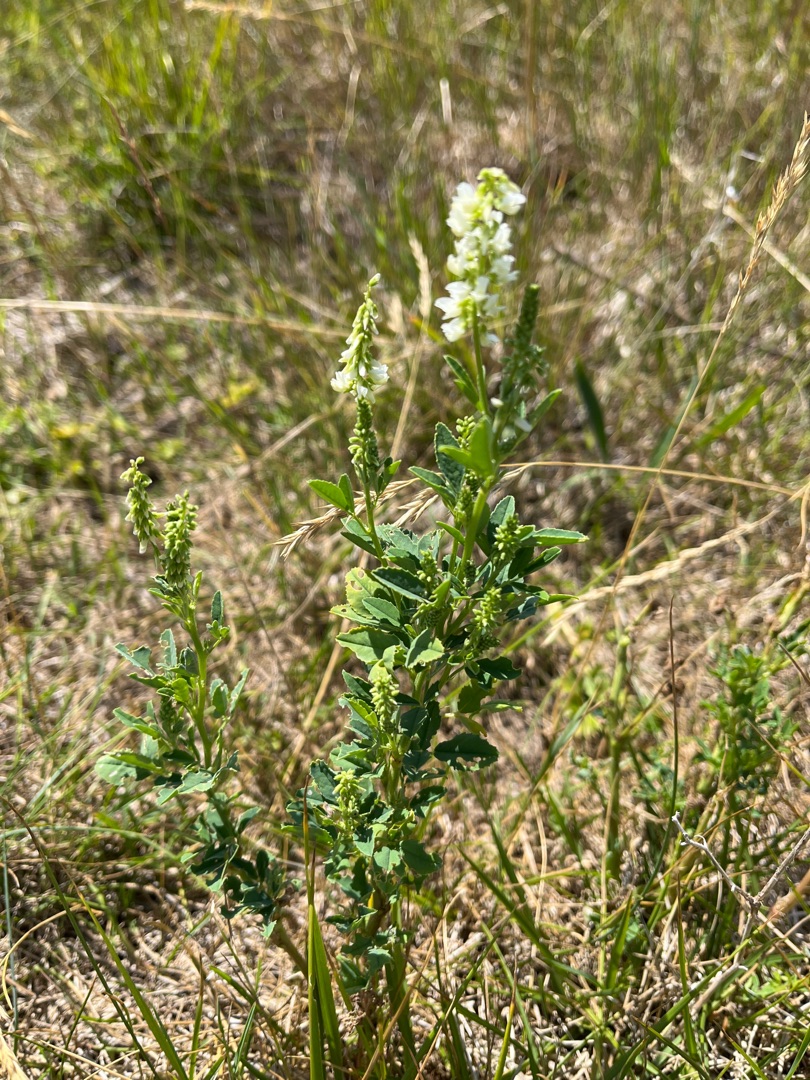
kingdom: Plantae
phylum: Tracheophyta
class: Magnoliopsida
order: Fabales
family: Fabaceae
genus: Melilotus
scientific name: Melilotus albus
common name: Hvid stenkløver
